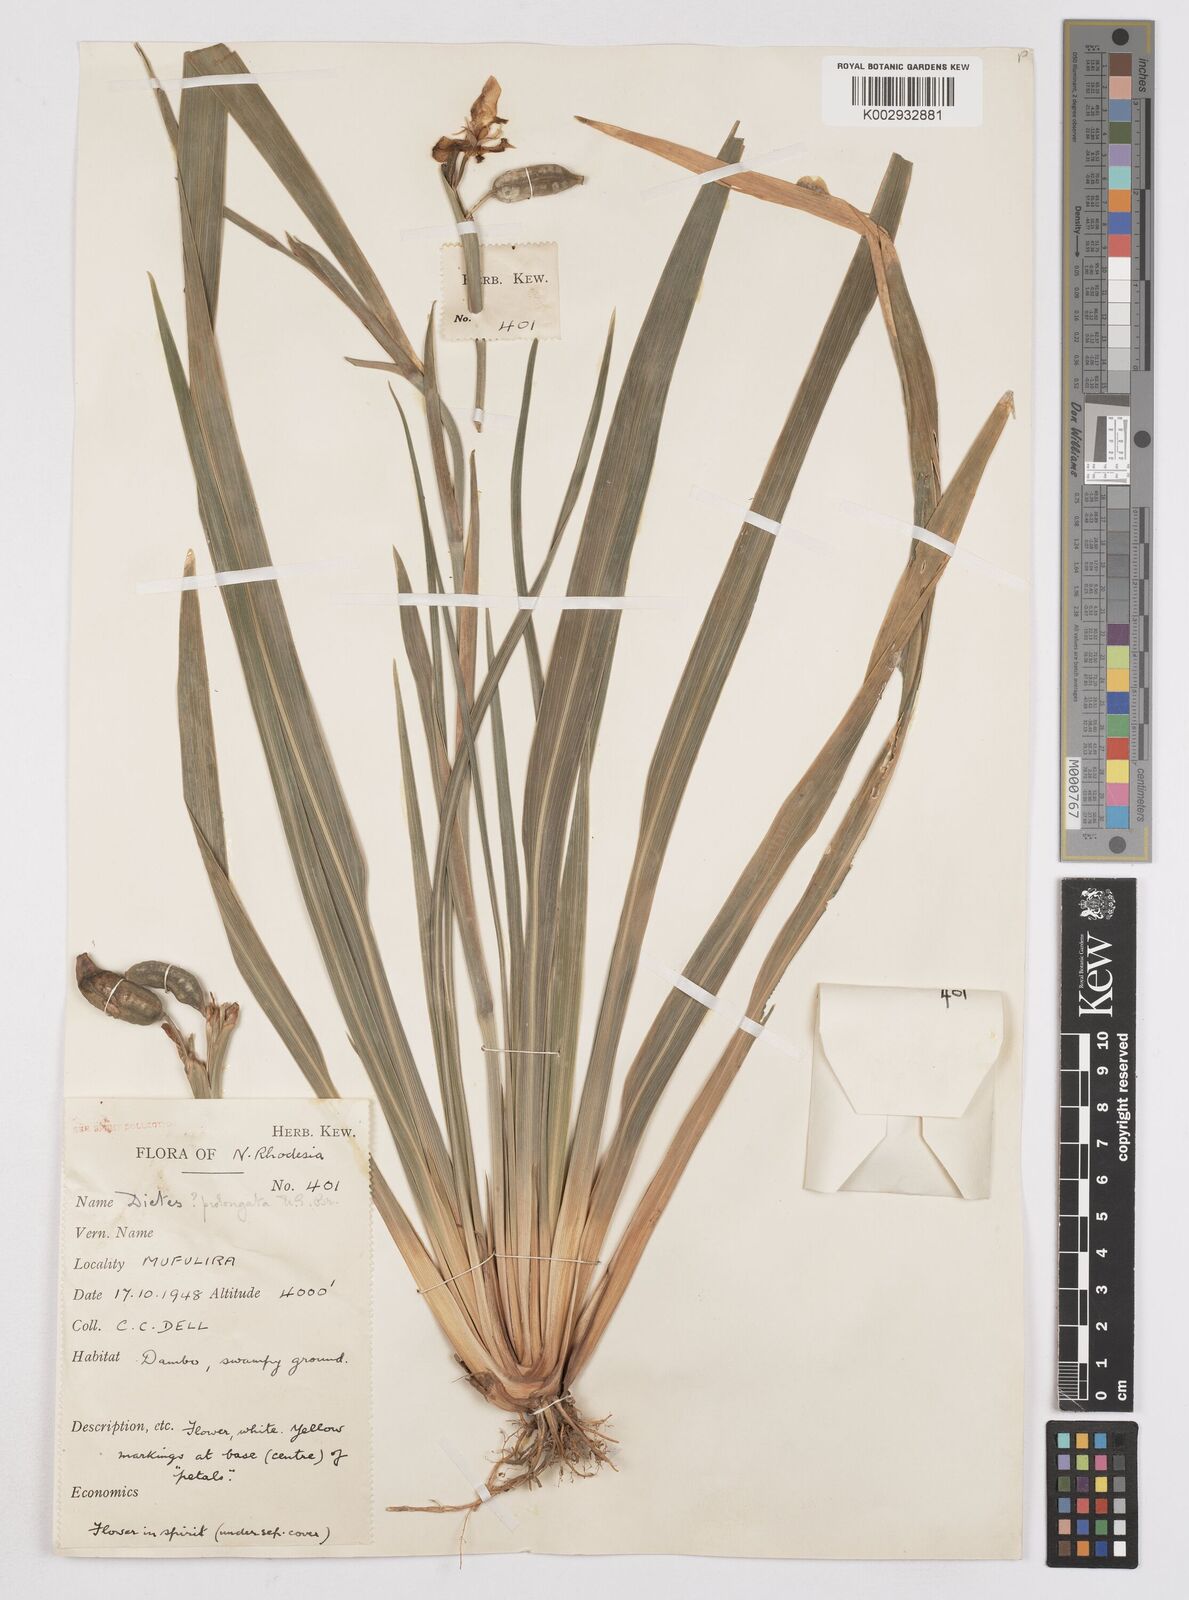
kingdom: Plantae
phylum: Tracheophyta
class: Liliopsida
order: Asparagales
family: Iridaceae
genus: Dietes
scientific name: Dietes iridioides
